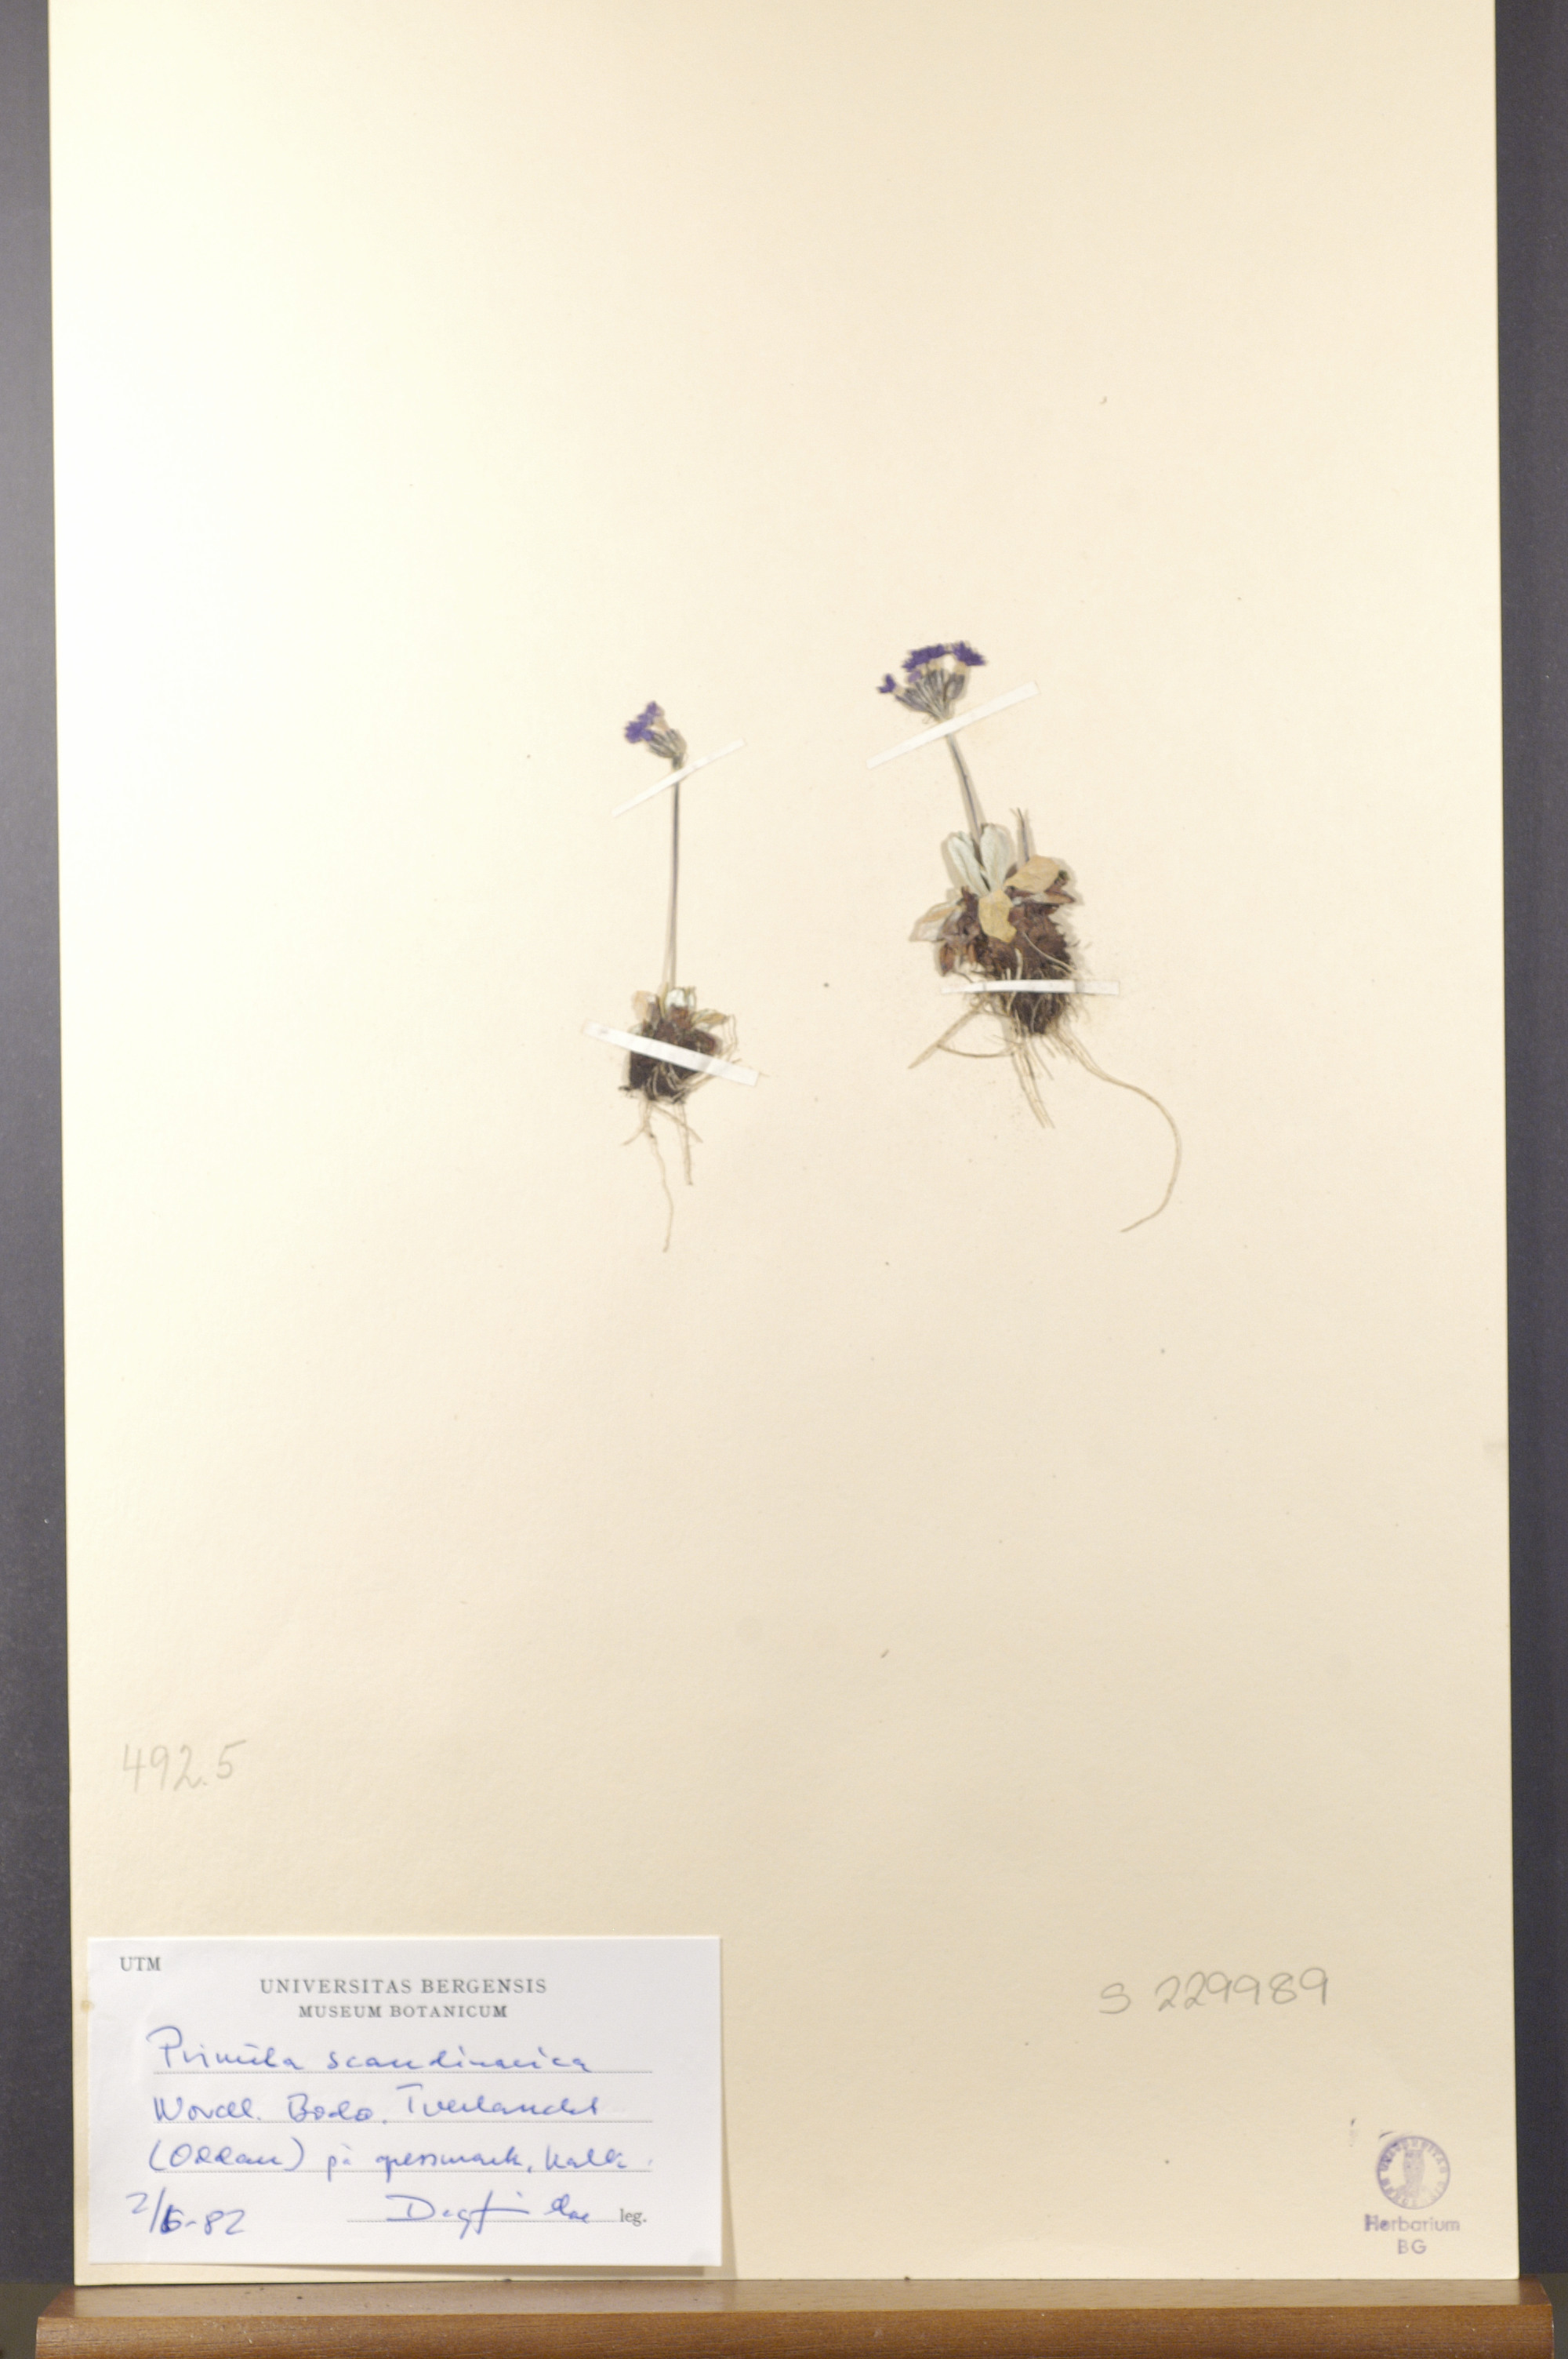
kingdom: Plantae
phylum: Tracheophyta
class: Magnoliopsida
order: Ericales
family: Primulaceae
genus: Primula
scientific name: Primula scandinavica
